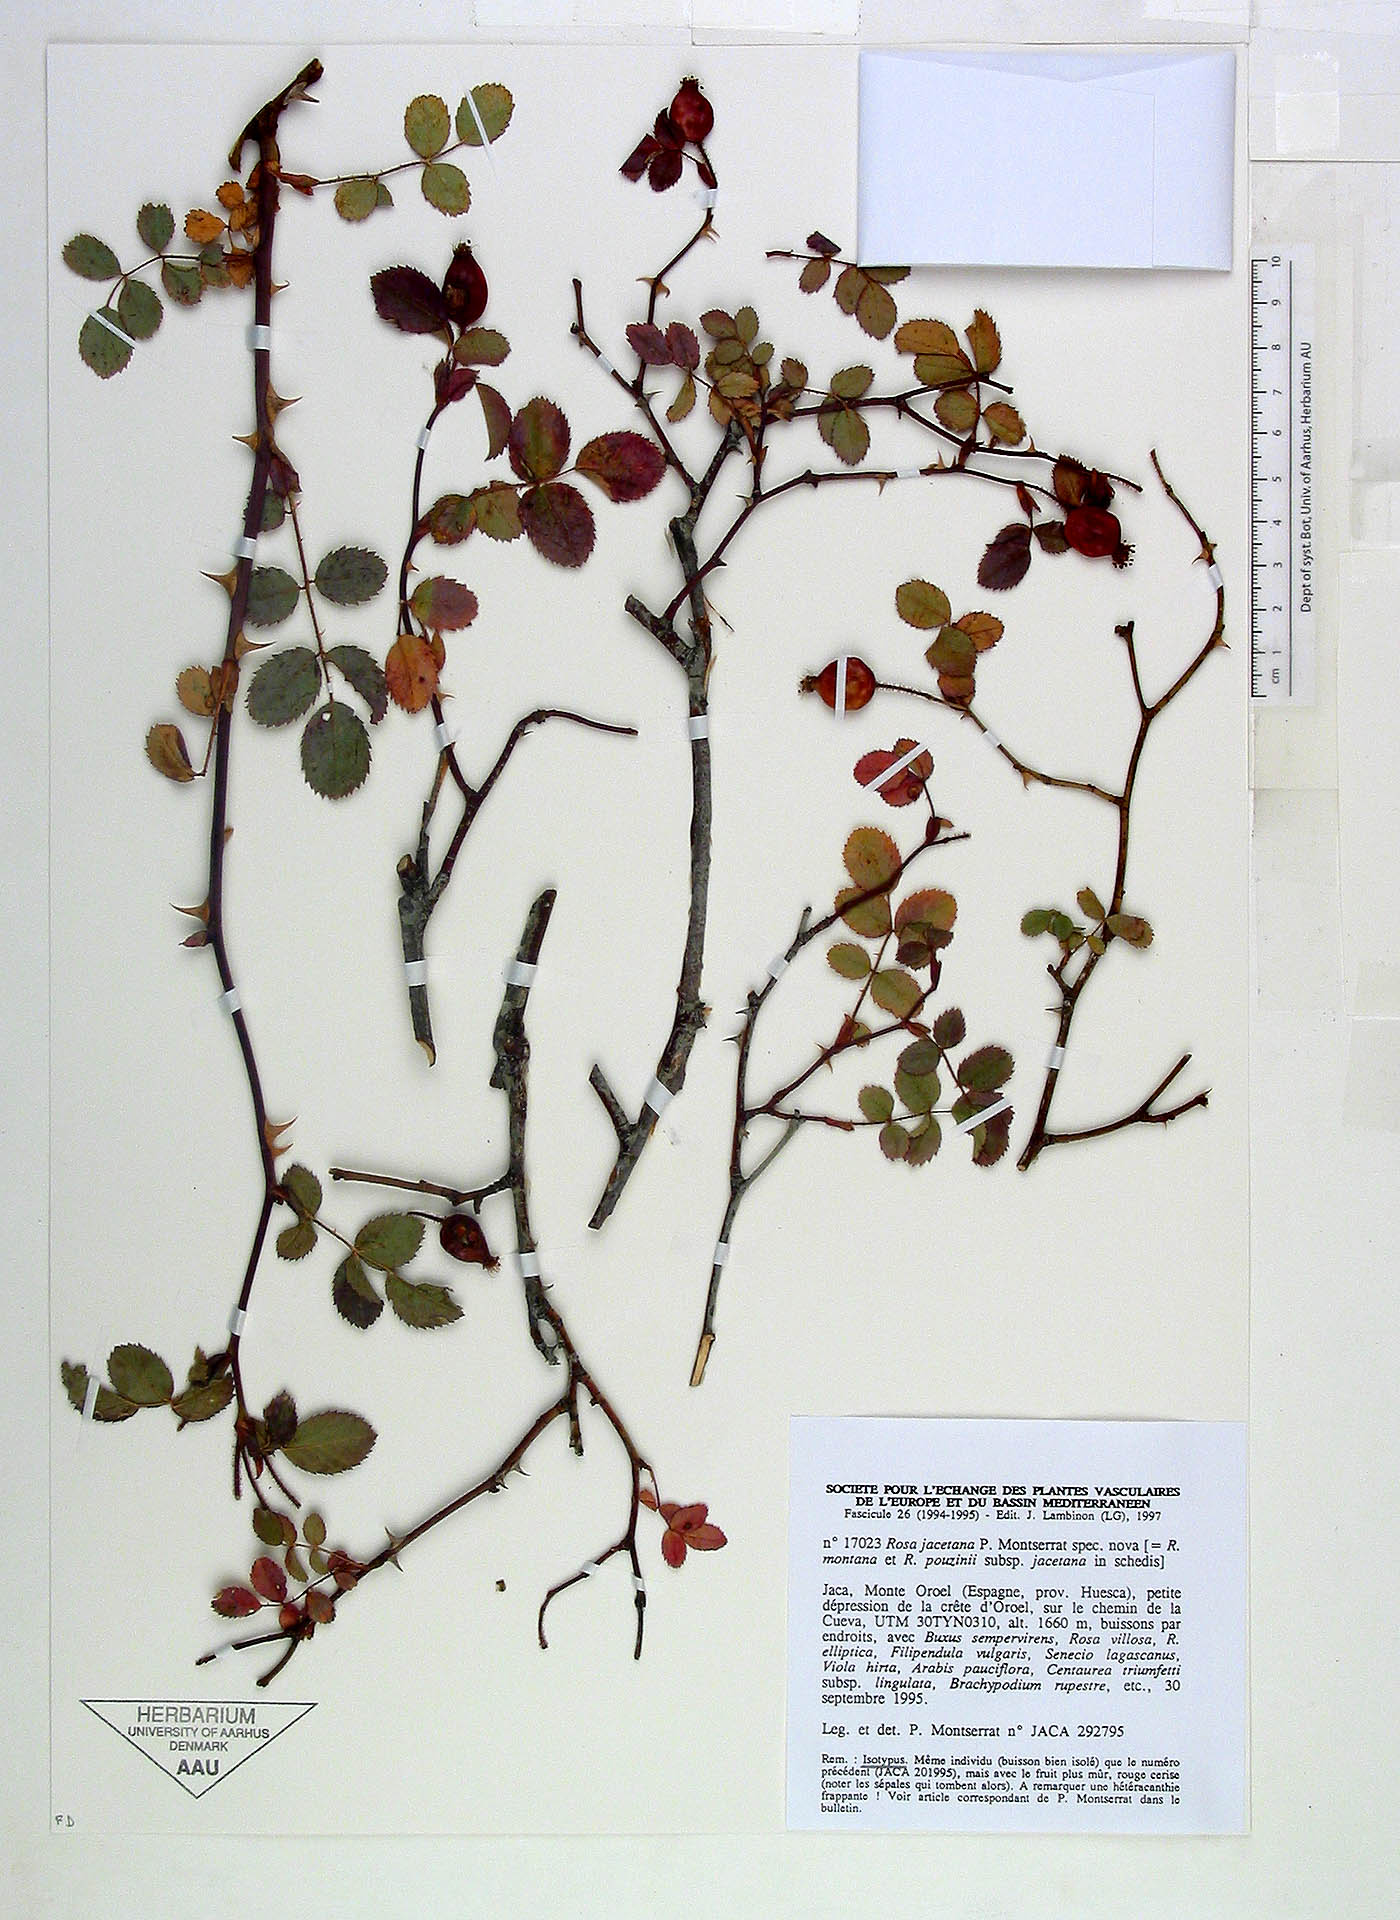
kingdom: Plantae
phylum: Tracheophyta
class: Magnoliopsida
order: Rosales
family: Rosaceae
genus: Rosa
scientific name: Rosa pouzinii
